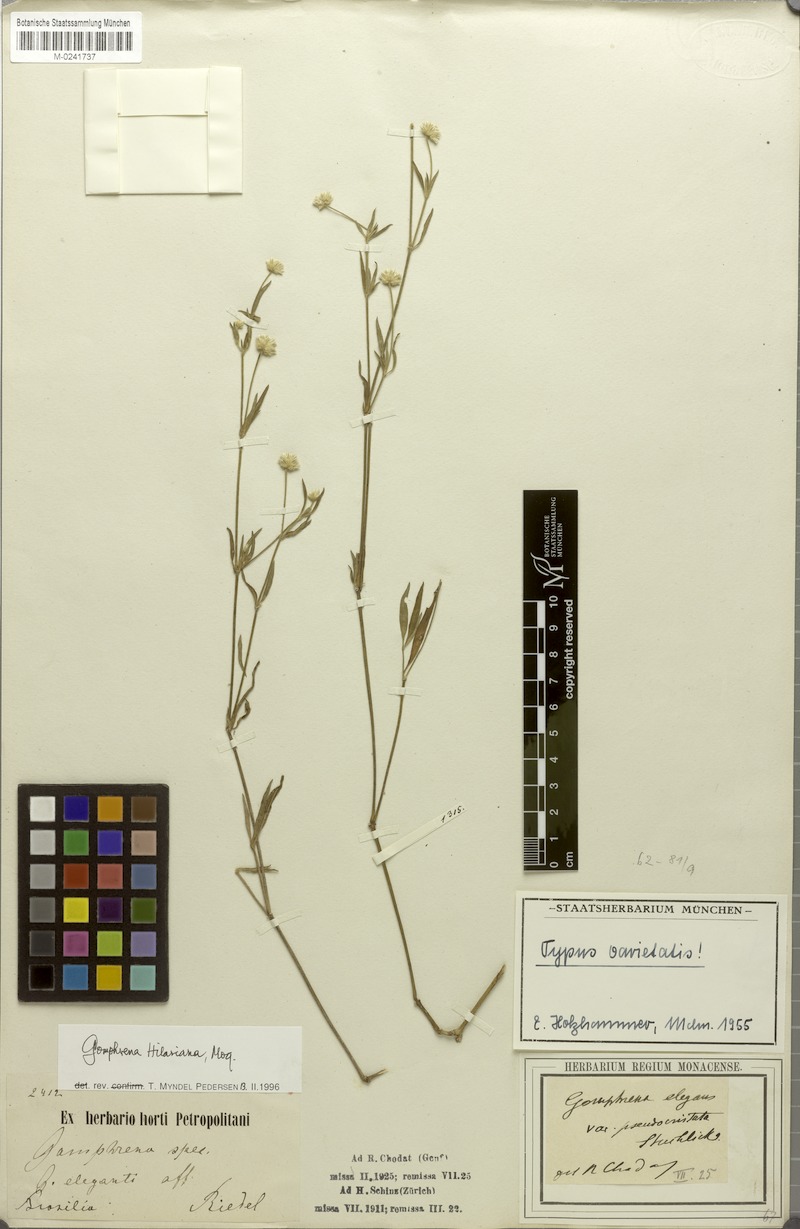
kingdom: Plantae
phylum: Tracheophyta
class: Magnoliopsida
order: Caryophyllales
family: Amaranthaceae
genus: Gomphrena
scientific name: Gomphrena elegans
